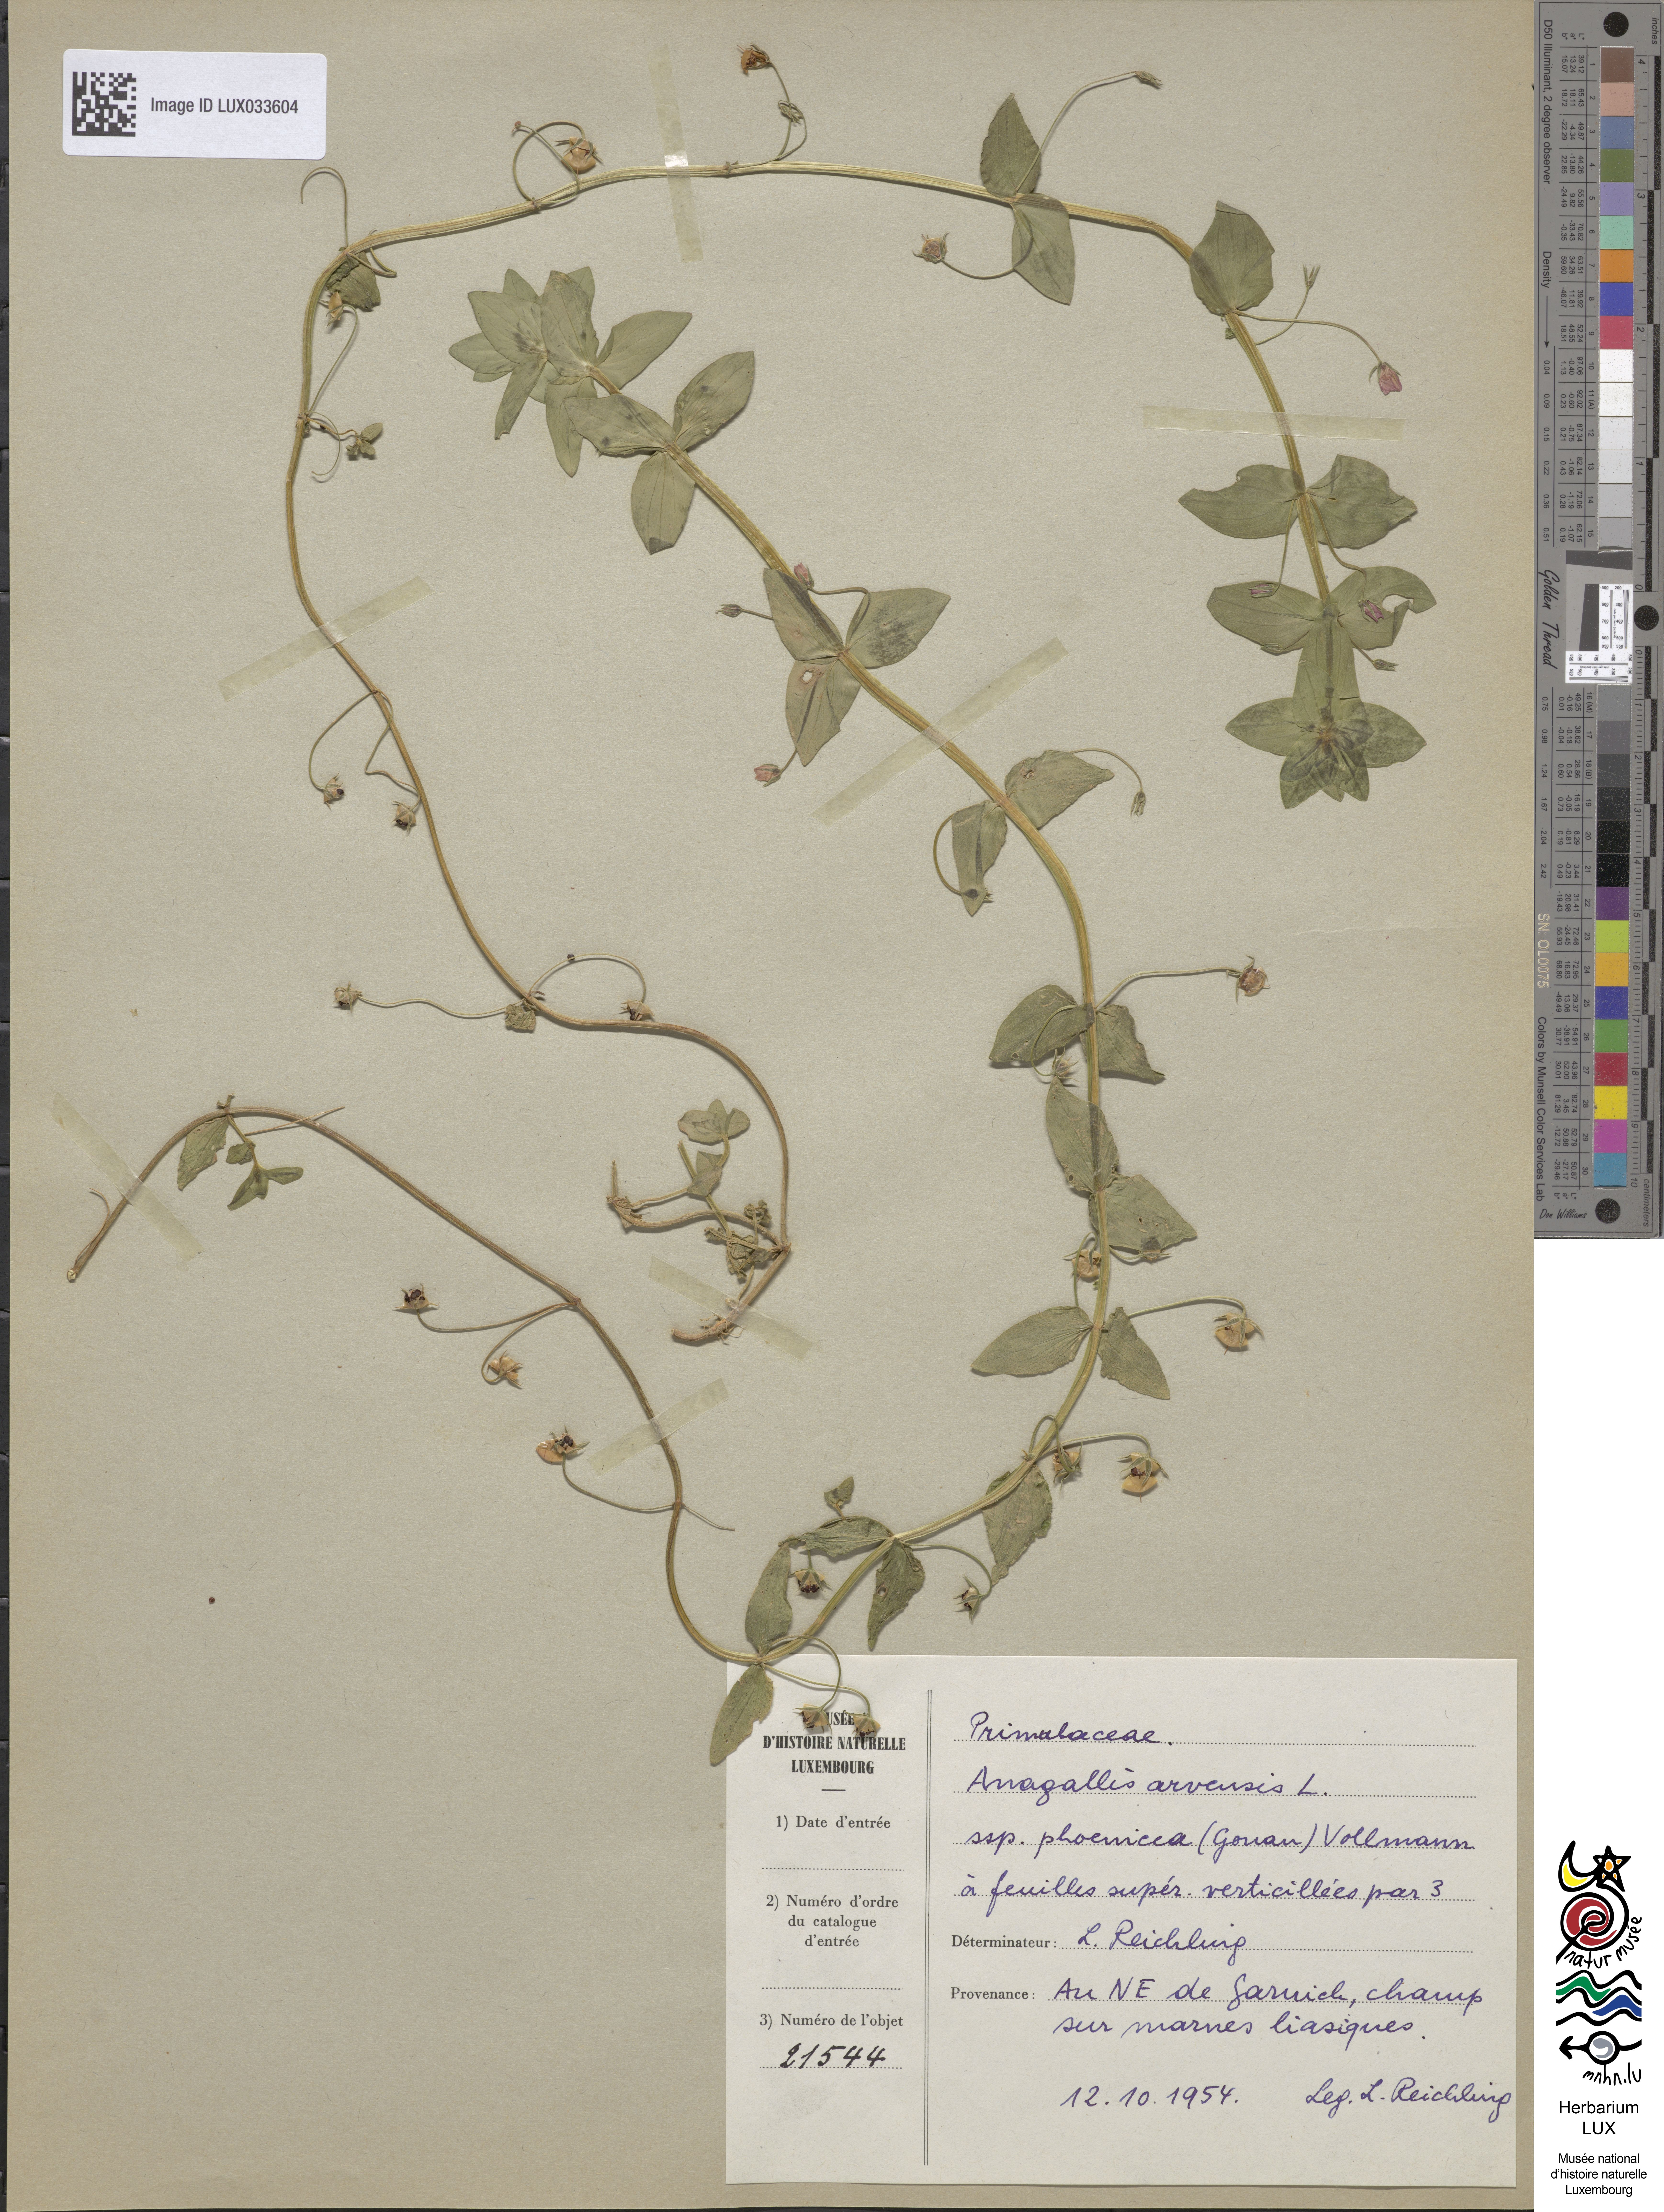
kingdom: Plantae
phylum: Tracheophyta
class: Magnoliopsida
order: Ericales
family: Primulaceae
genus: Lysimachia
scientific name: Lysimachia arvensis
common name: Scarlet pimpernel
